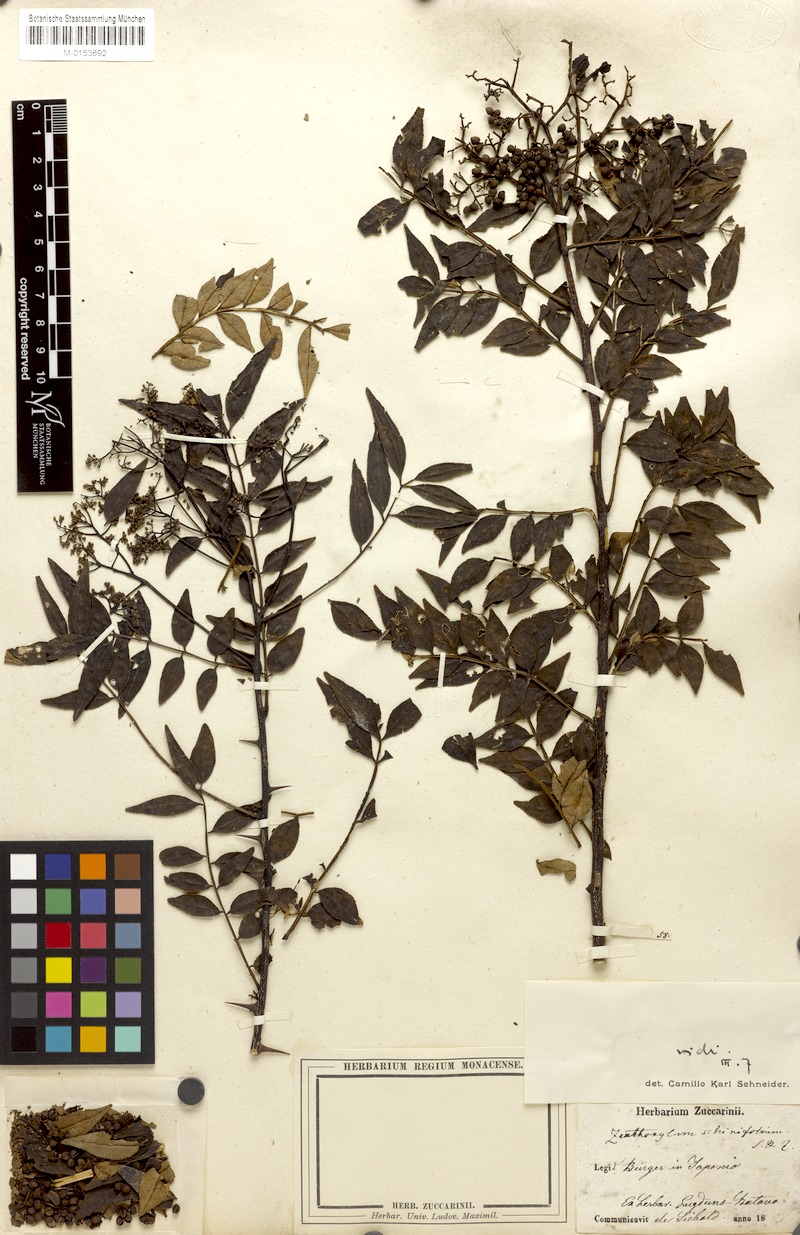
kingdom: Plantae
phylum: Tracheophyta
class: Magnoliopsida
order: Sapindales
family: Rutaceae
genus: Zanthoxylum
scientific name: Zanthoxylum schinifolium
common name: Sichuan-pepper
